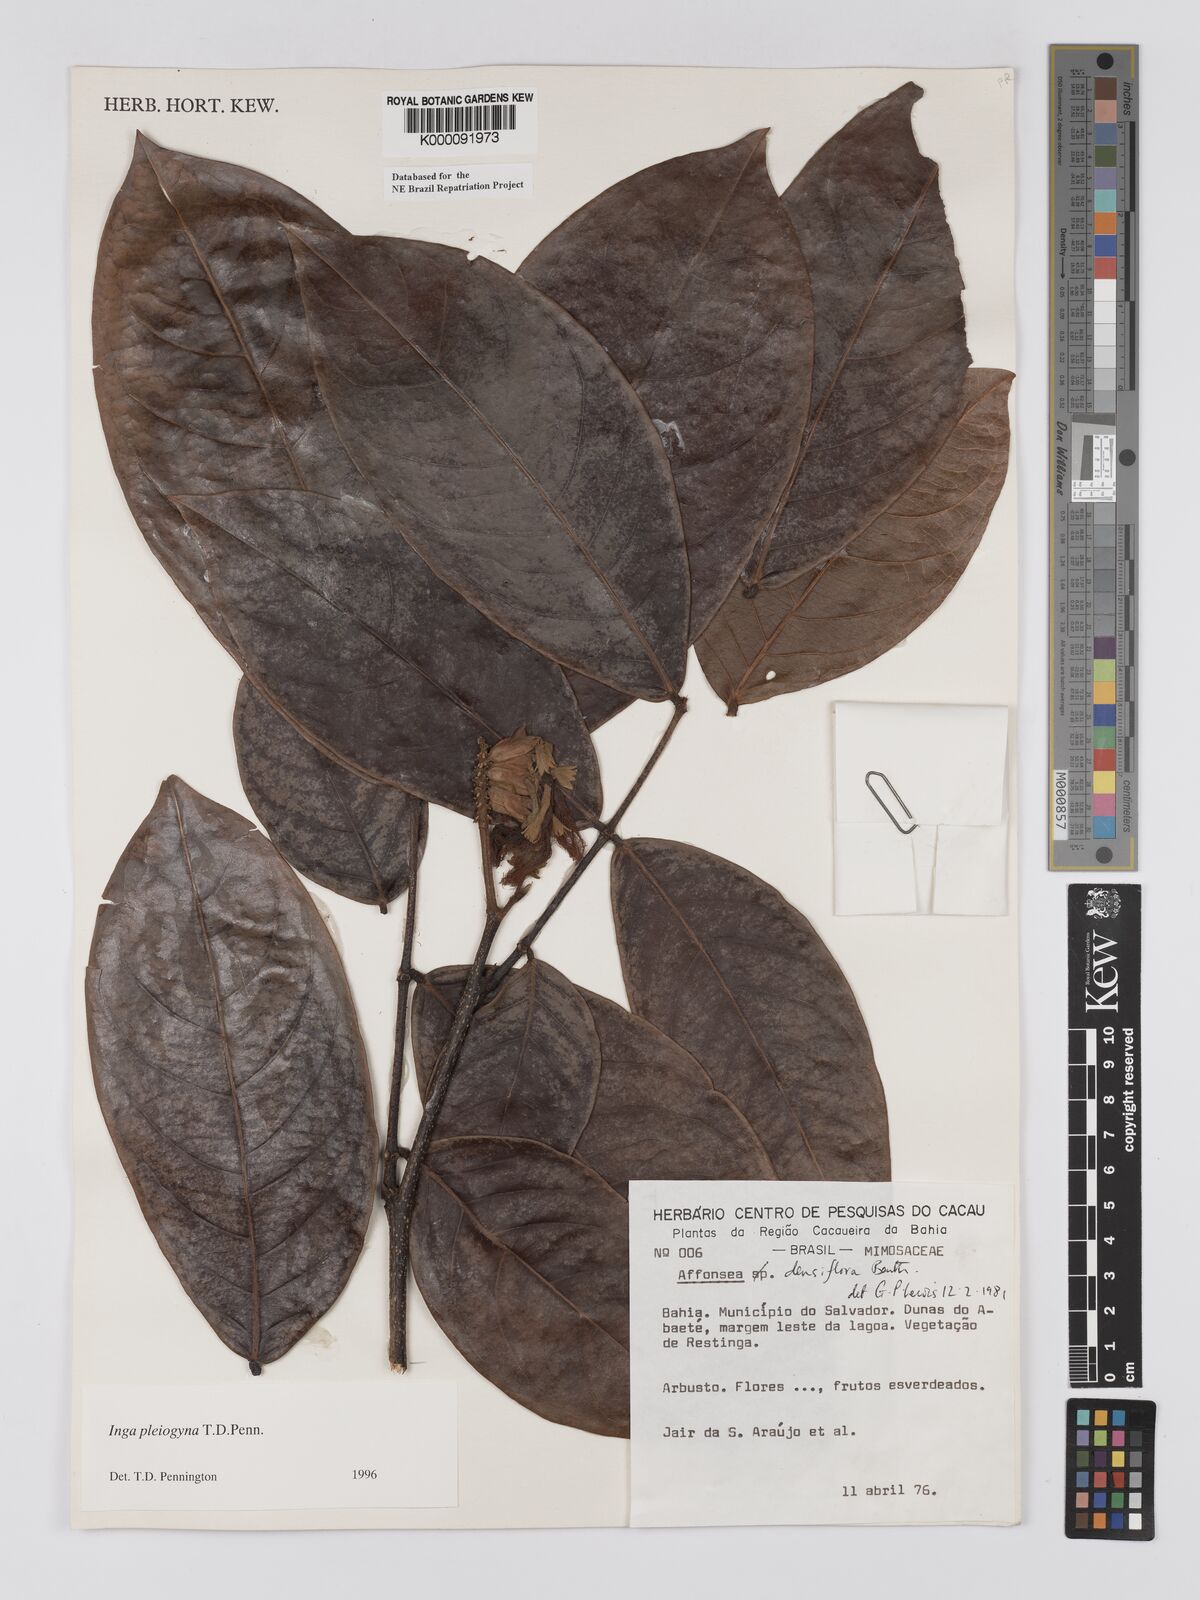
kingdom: Plantae
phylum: Tracheophyta
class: Magnoliopsida
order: Fabales
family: Fabaceae
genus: Inga
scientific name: Inga pleiogyna
